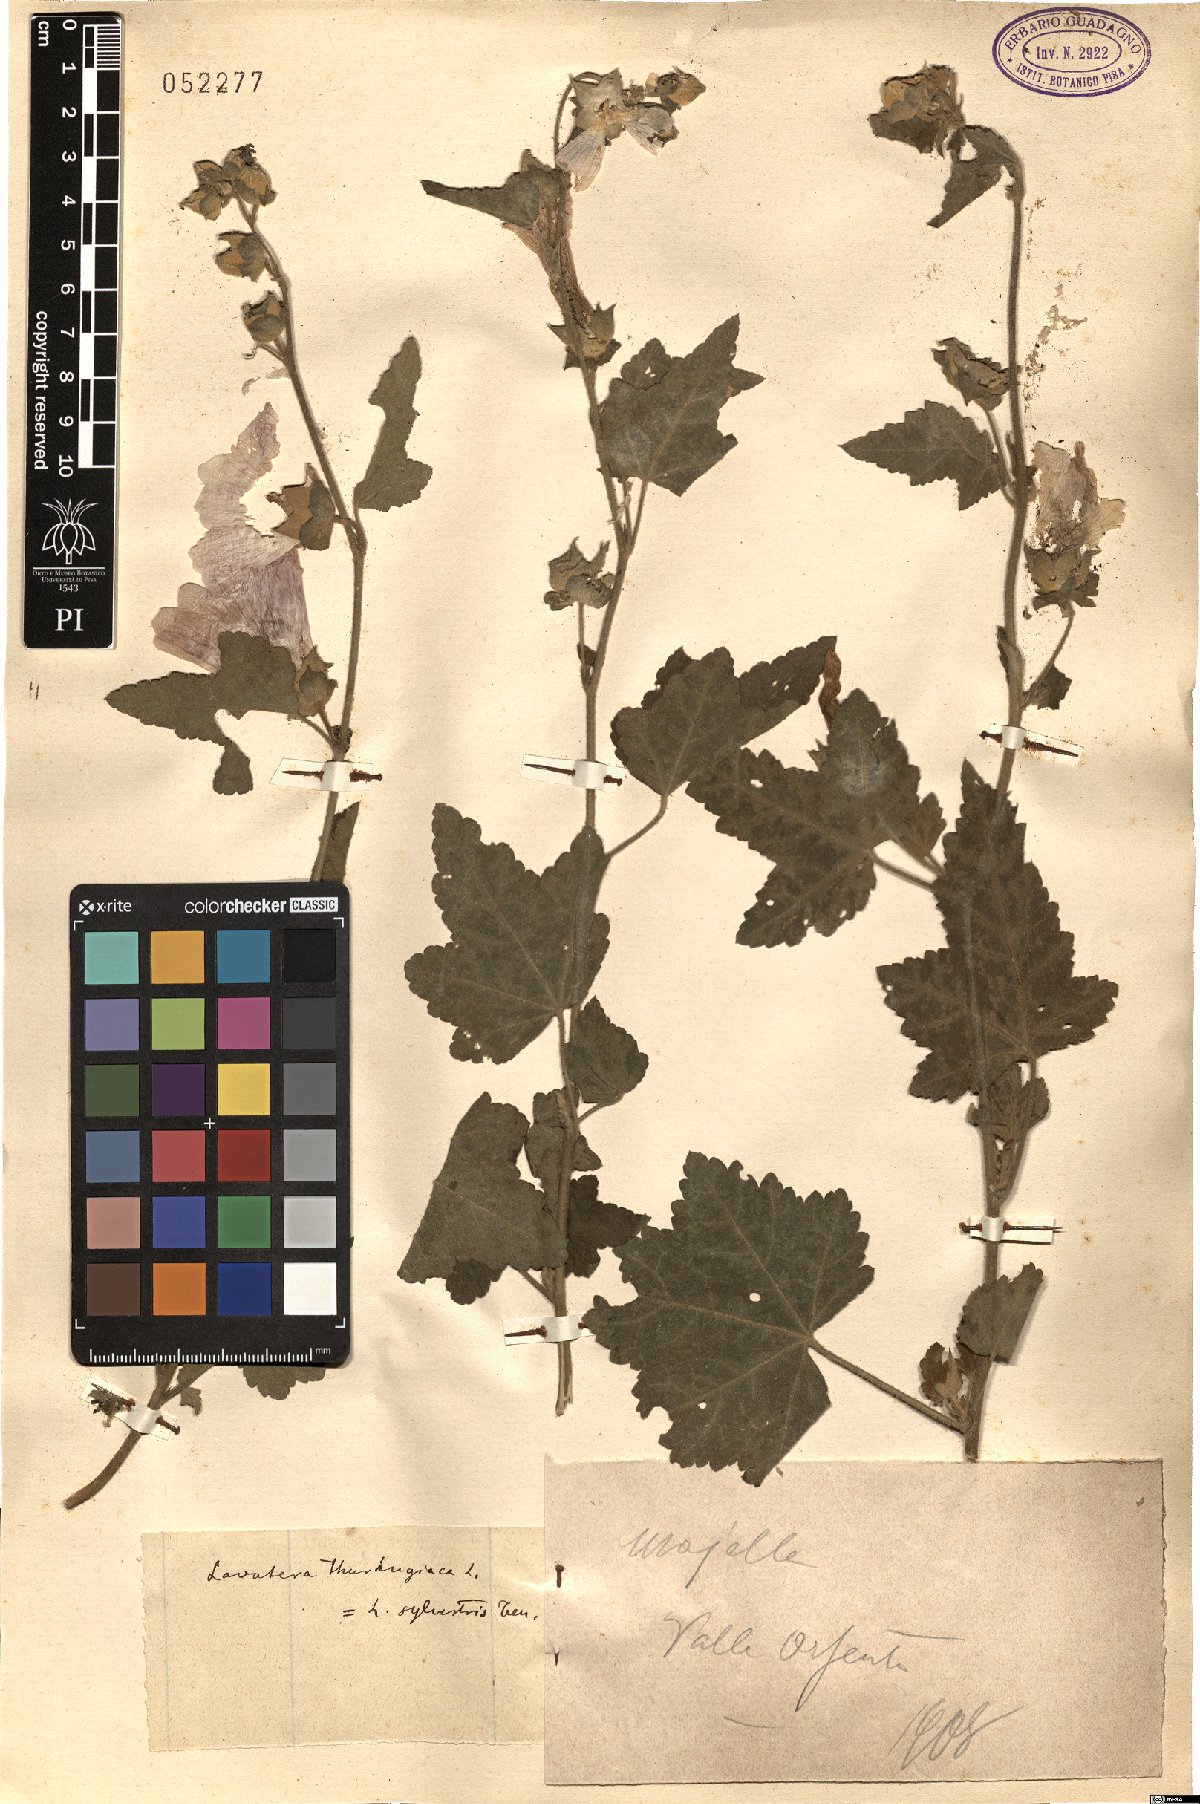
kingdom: Plantae
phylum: Tracheophyta
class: Magnoliopsida
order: Malvales
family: Malvaceae
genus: Malva
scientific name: Malva thuringiaca
